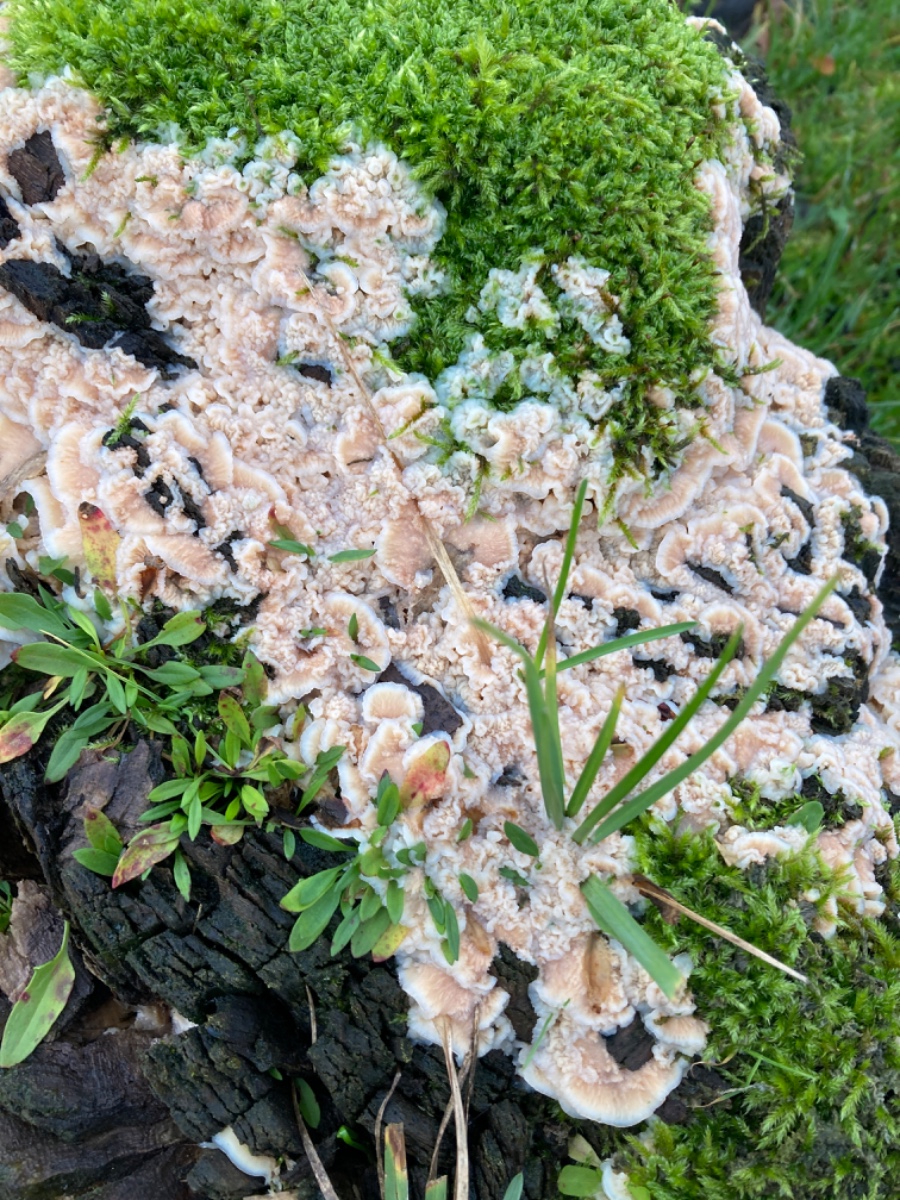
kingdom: Fungi
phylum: Basidiomycota
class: Agaricomycetes
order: Polyporales
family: Meruliaceae
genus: Phlebia
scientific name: Phlebia tremellosa
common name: bævrende åresvamp
